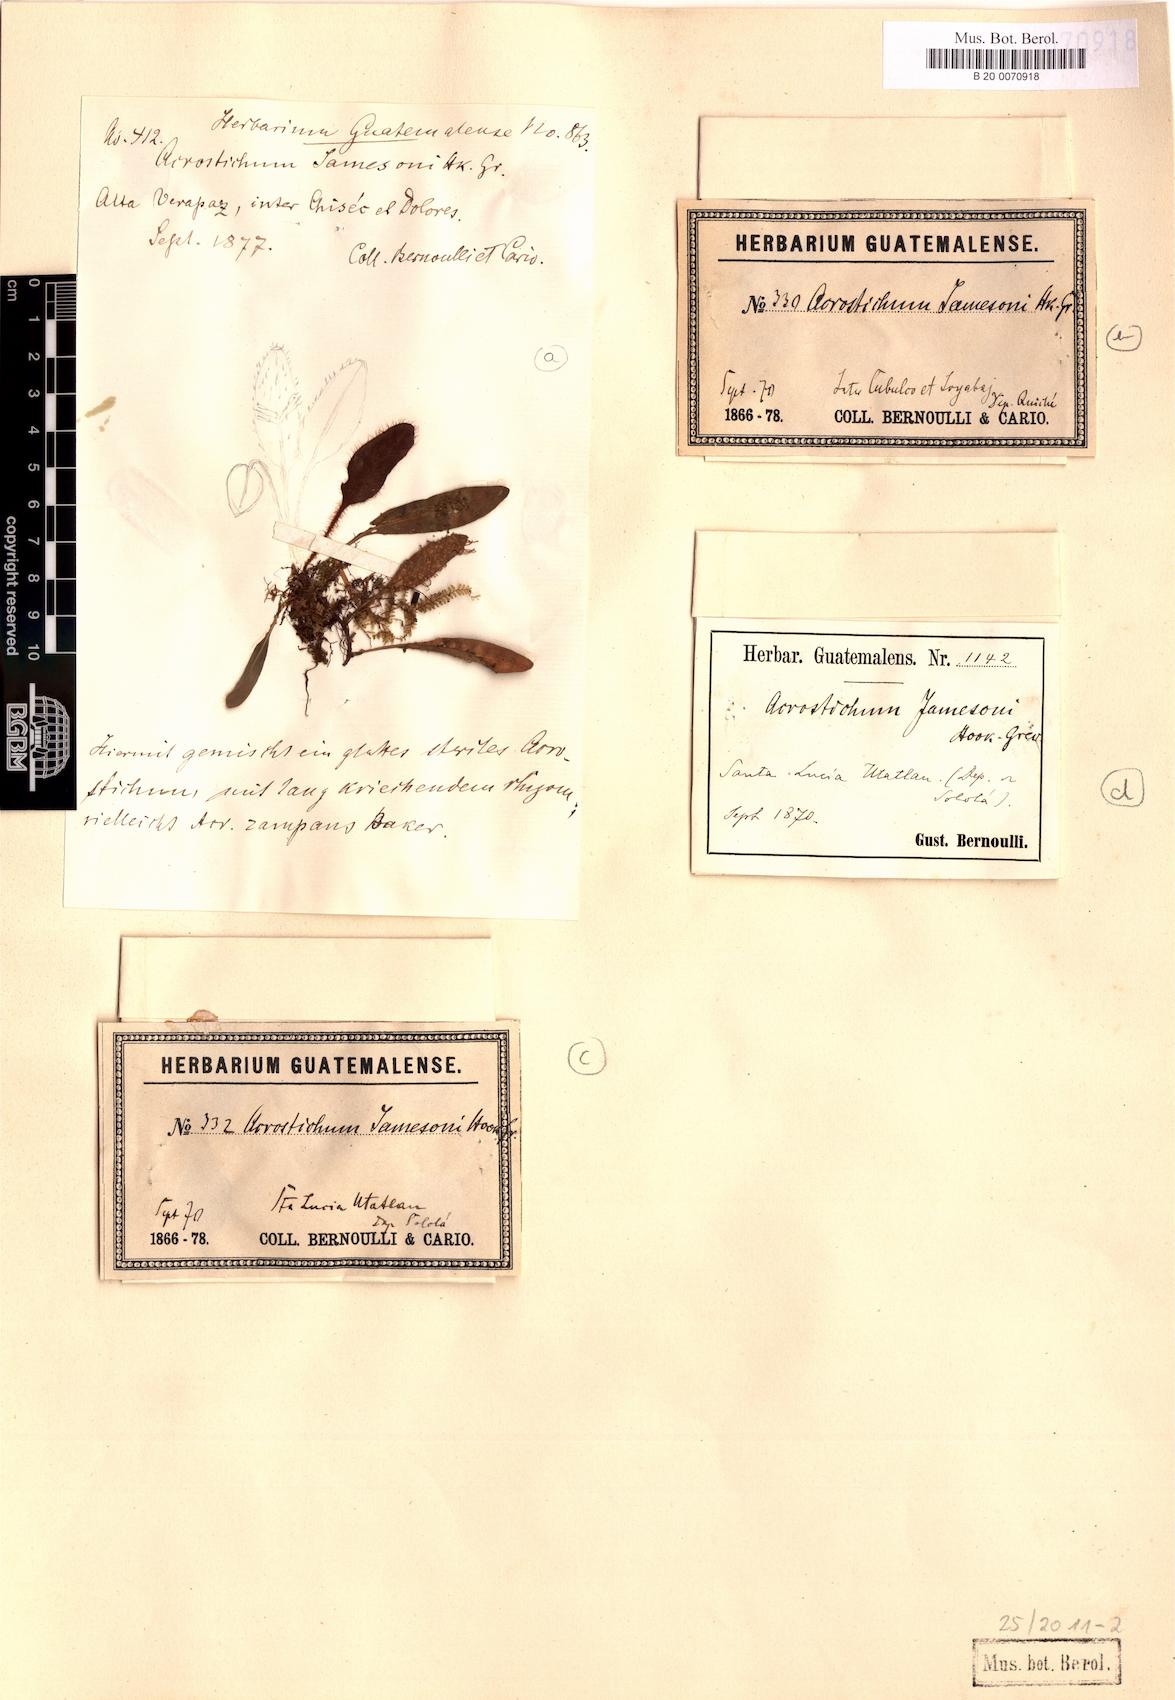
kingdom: Plantae
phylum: Tracheophyta
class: Polypodiopsida
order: Polypodiales
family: Dryopteridaceae
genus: Elaphoglossum
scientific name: Elaphoglossum piloselloides
